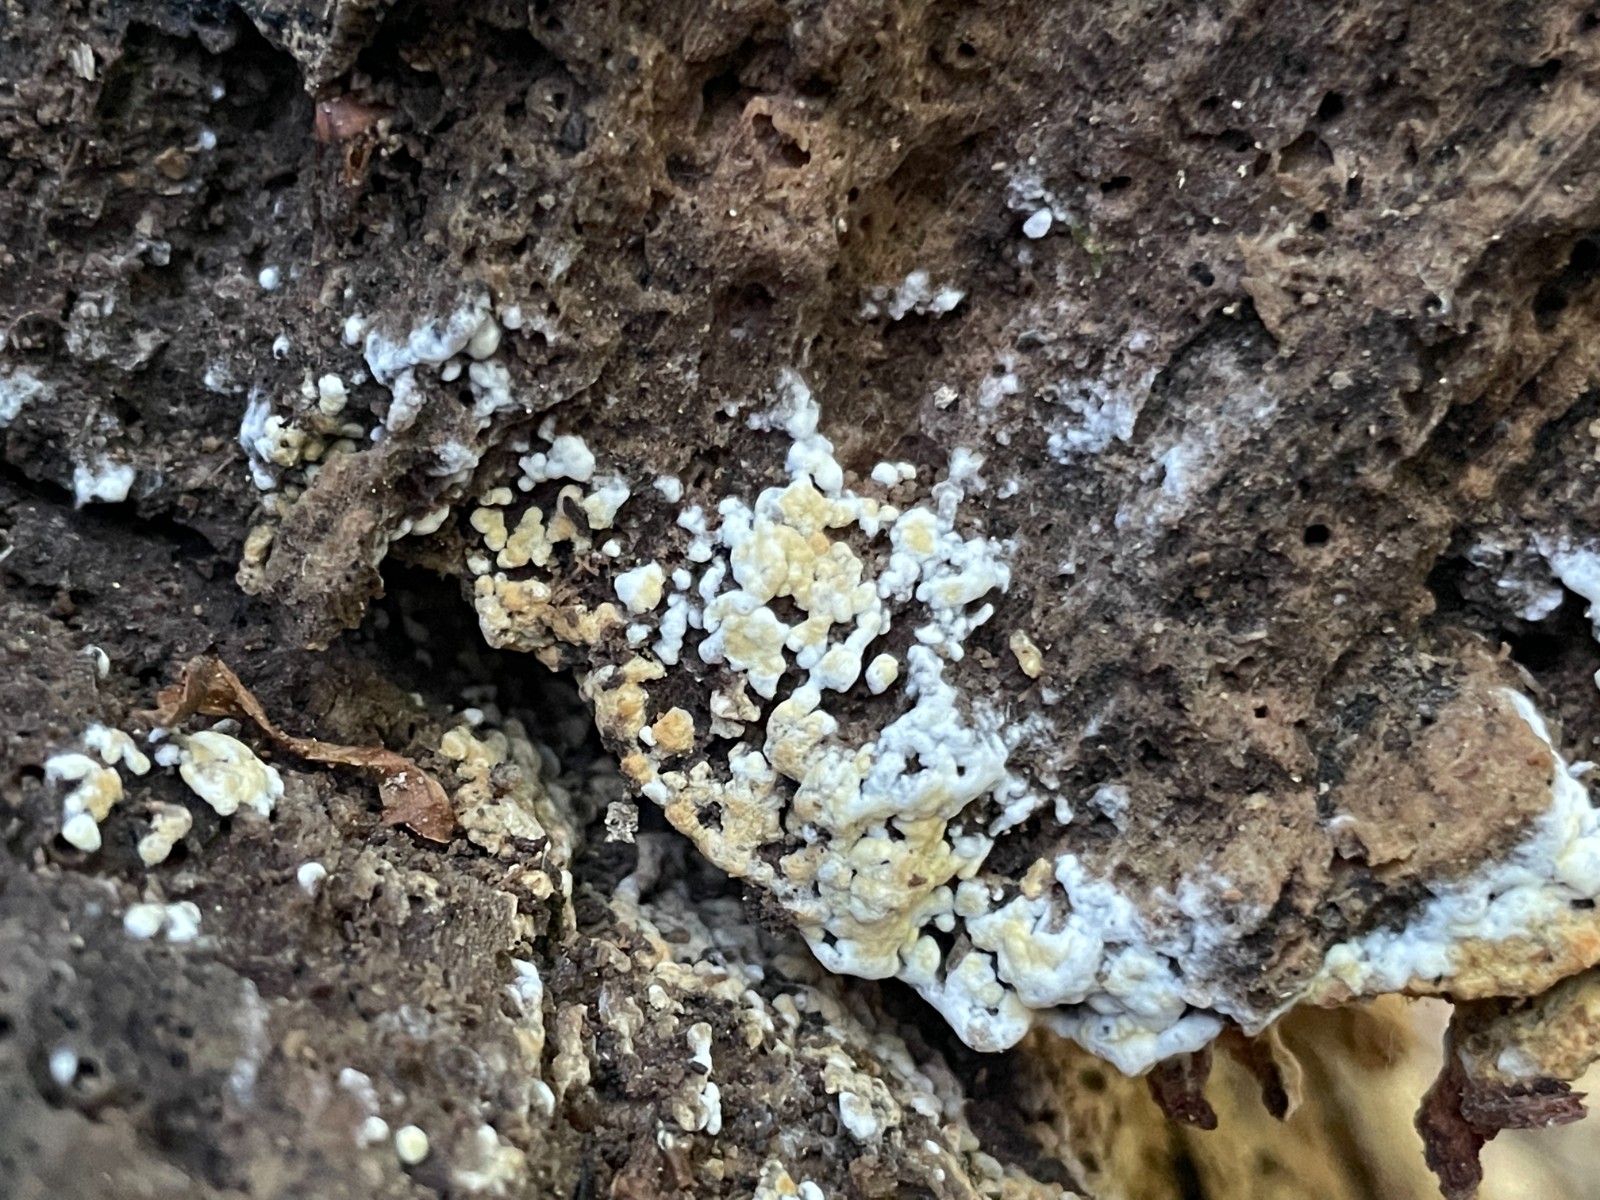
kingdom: Fungi
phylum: Basidiomycota
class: Agaricomycetes
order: Cantharellales
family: Botryobasidiaceae
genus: Botryobasidium
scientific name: Botryobasidium aureum
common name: gylden spindhinde
